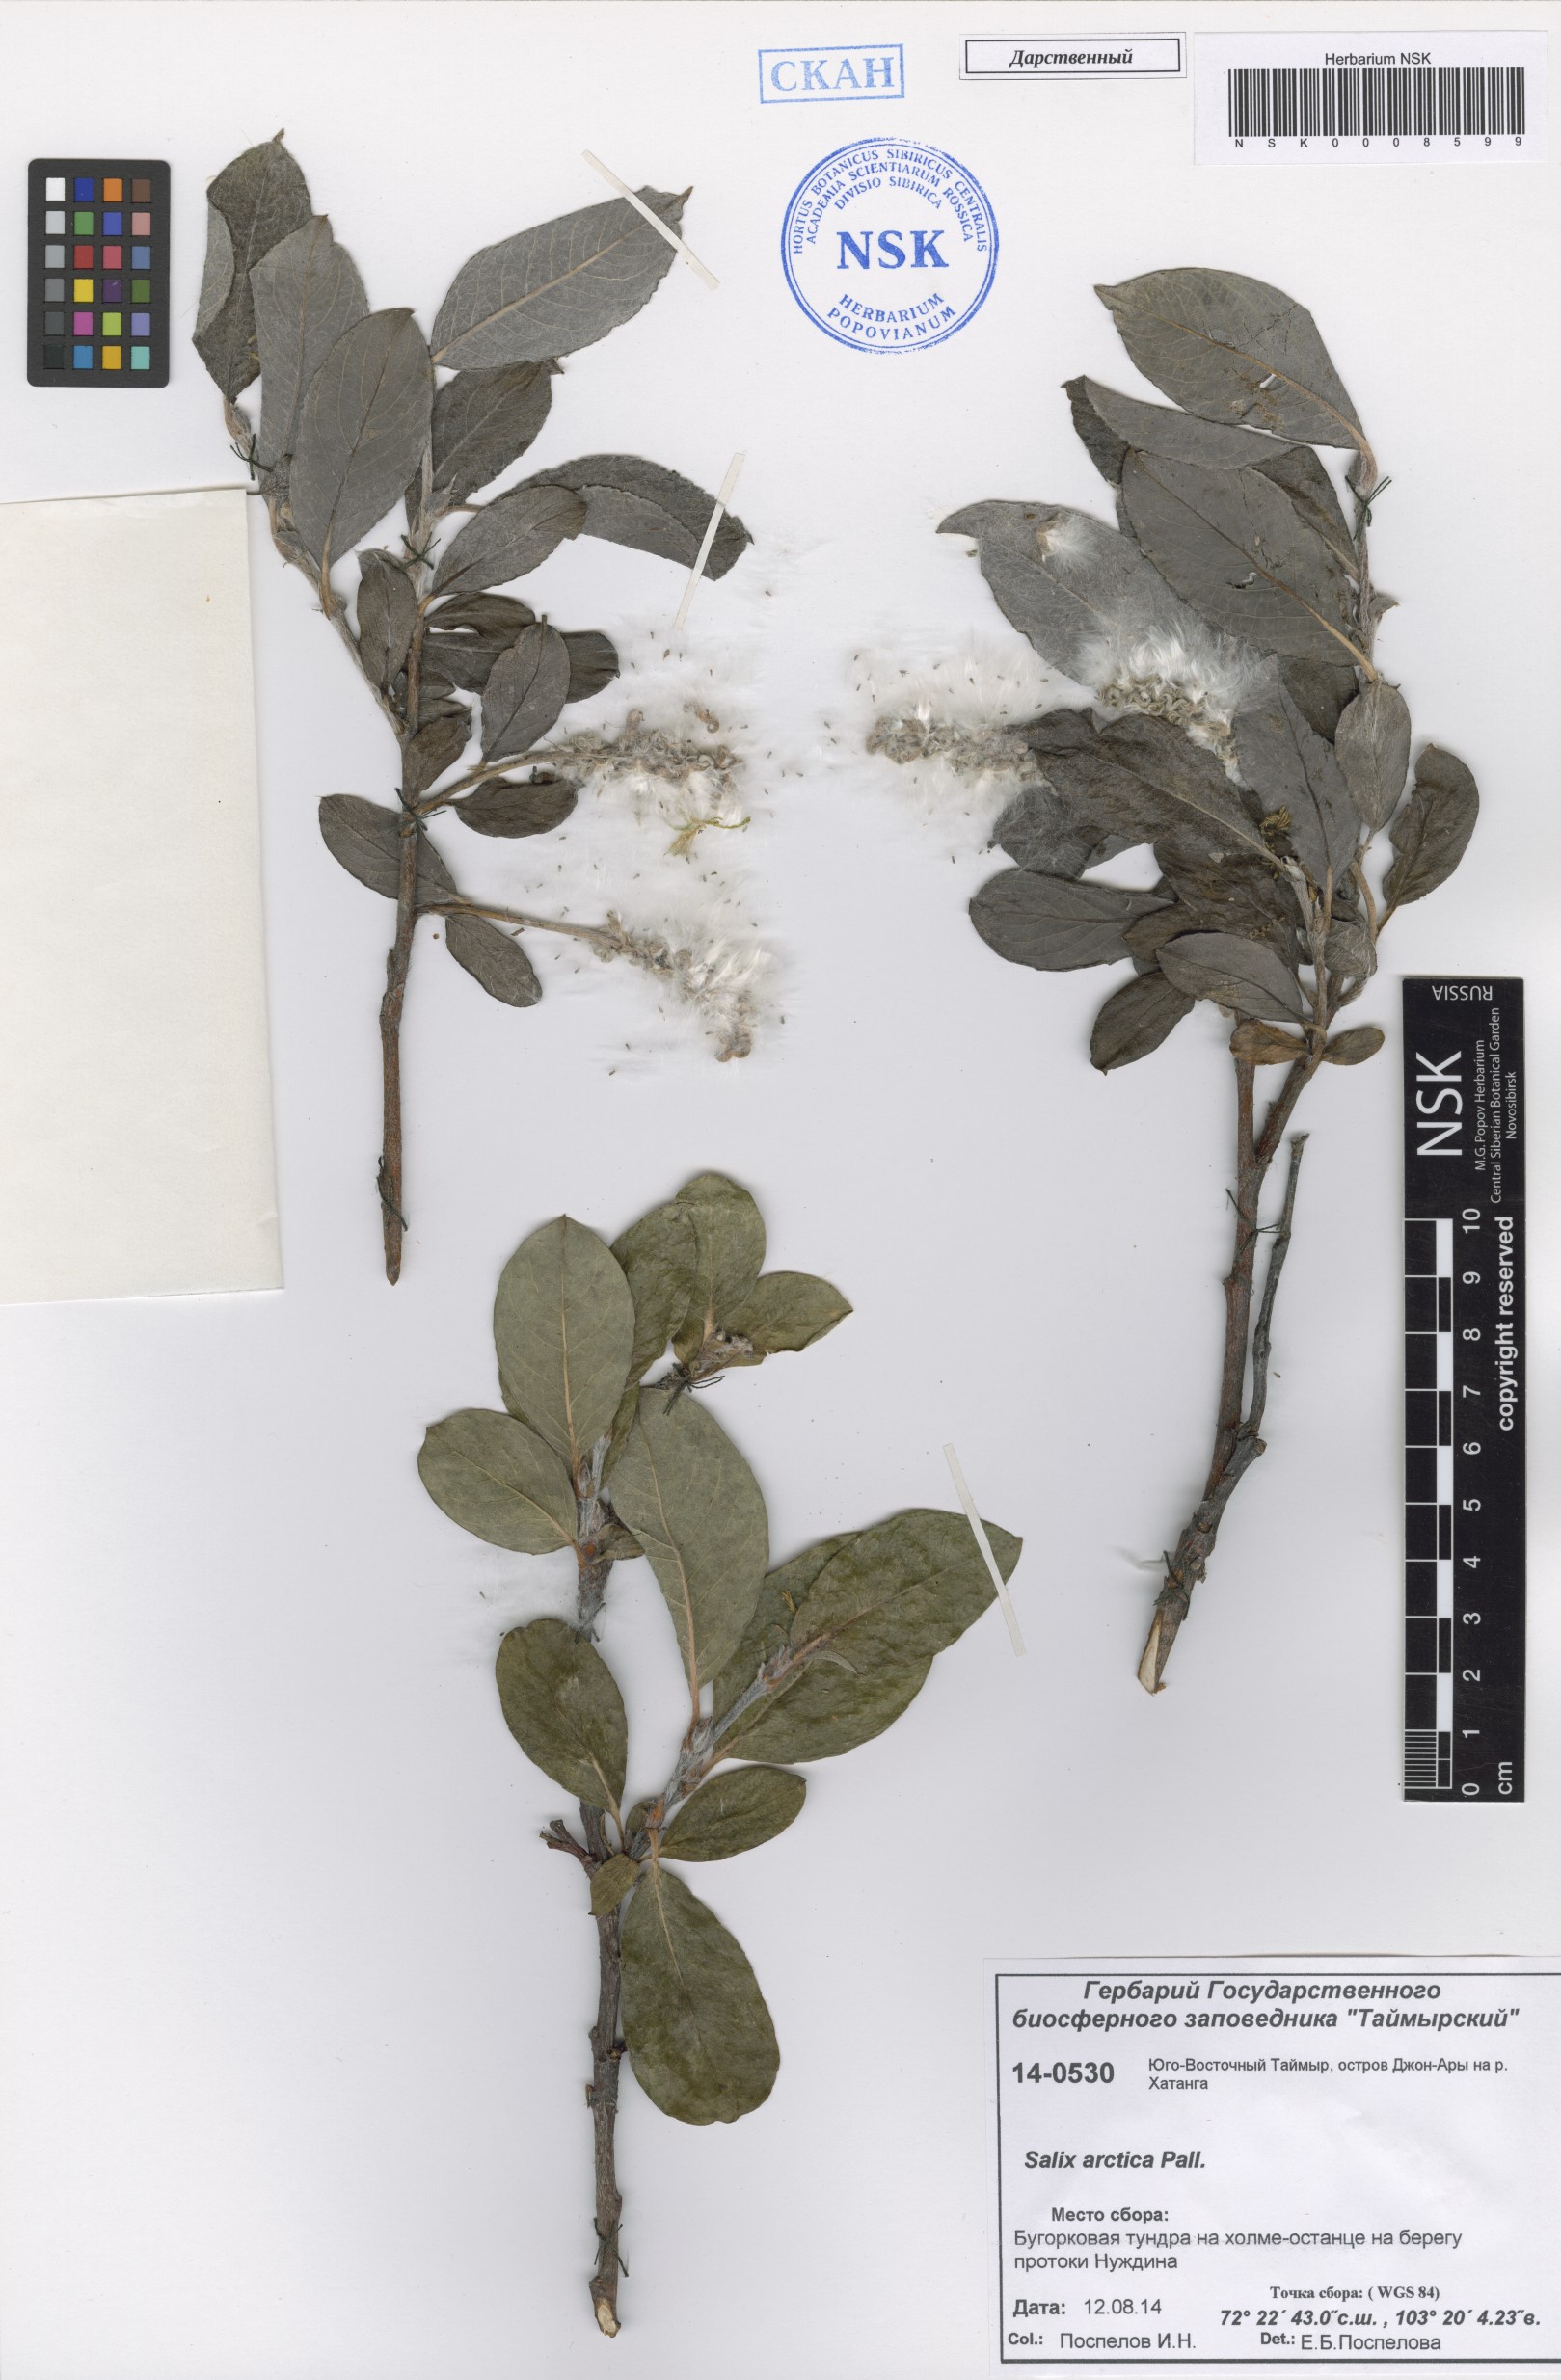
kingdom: Plantae
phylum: Tracheophyta
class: Magnoliopsida
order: Malpighiales
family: Salicaceae
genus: Salix
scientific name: Salix arctica
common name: Arctic willow
